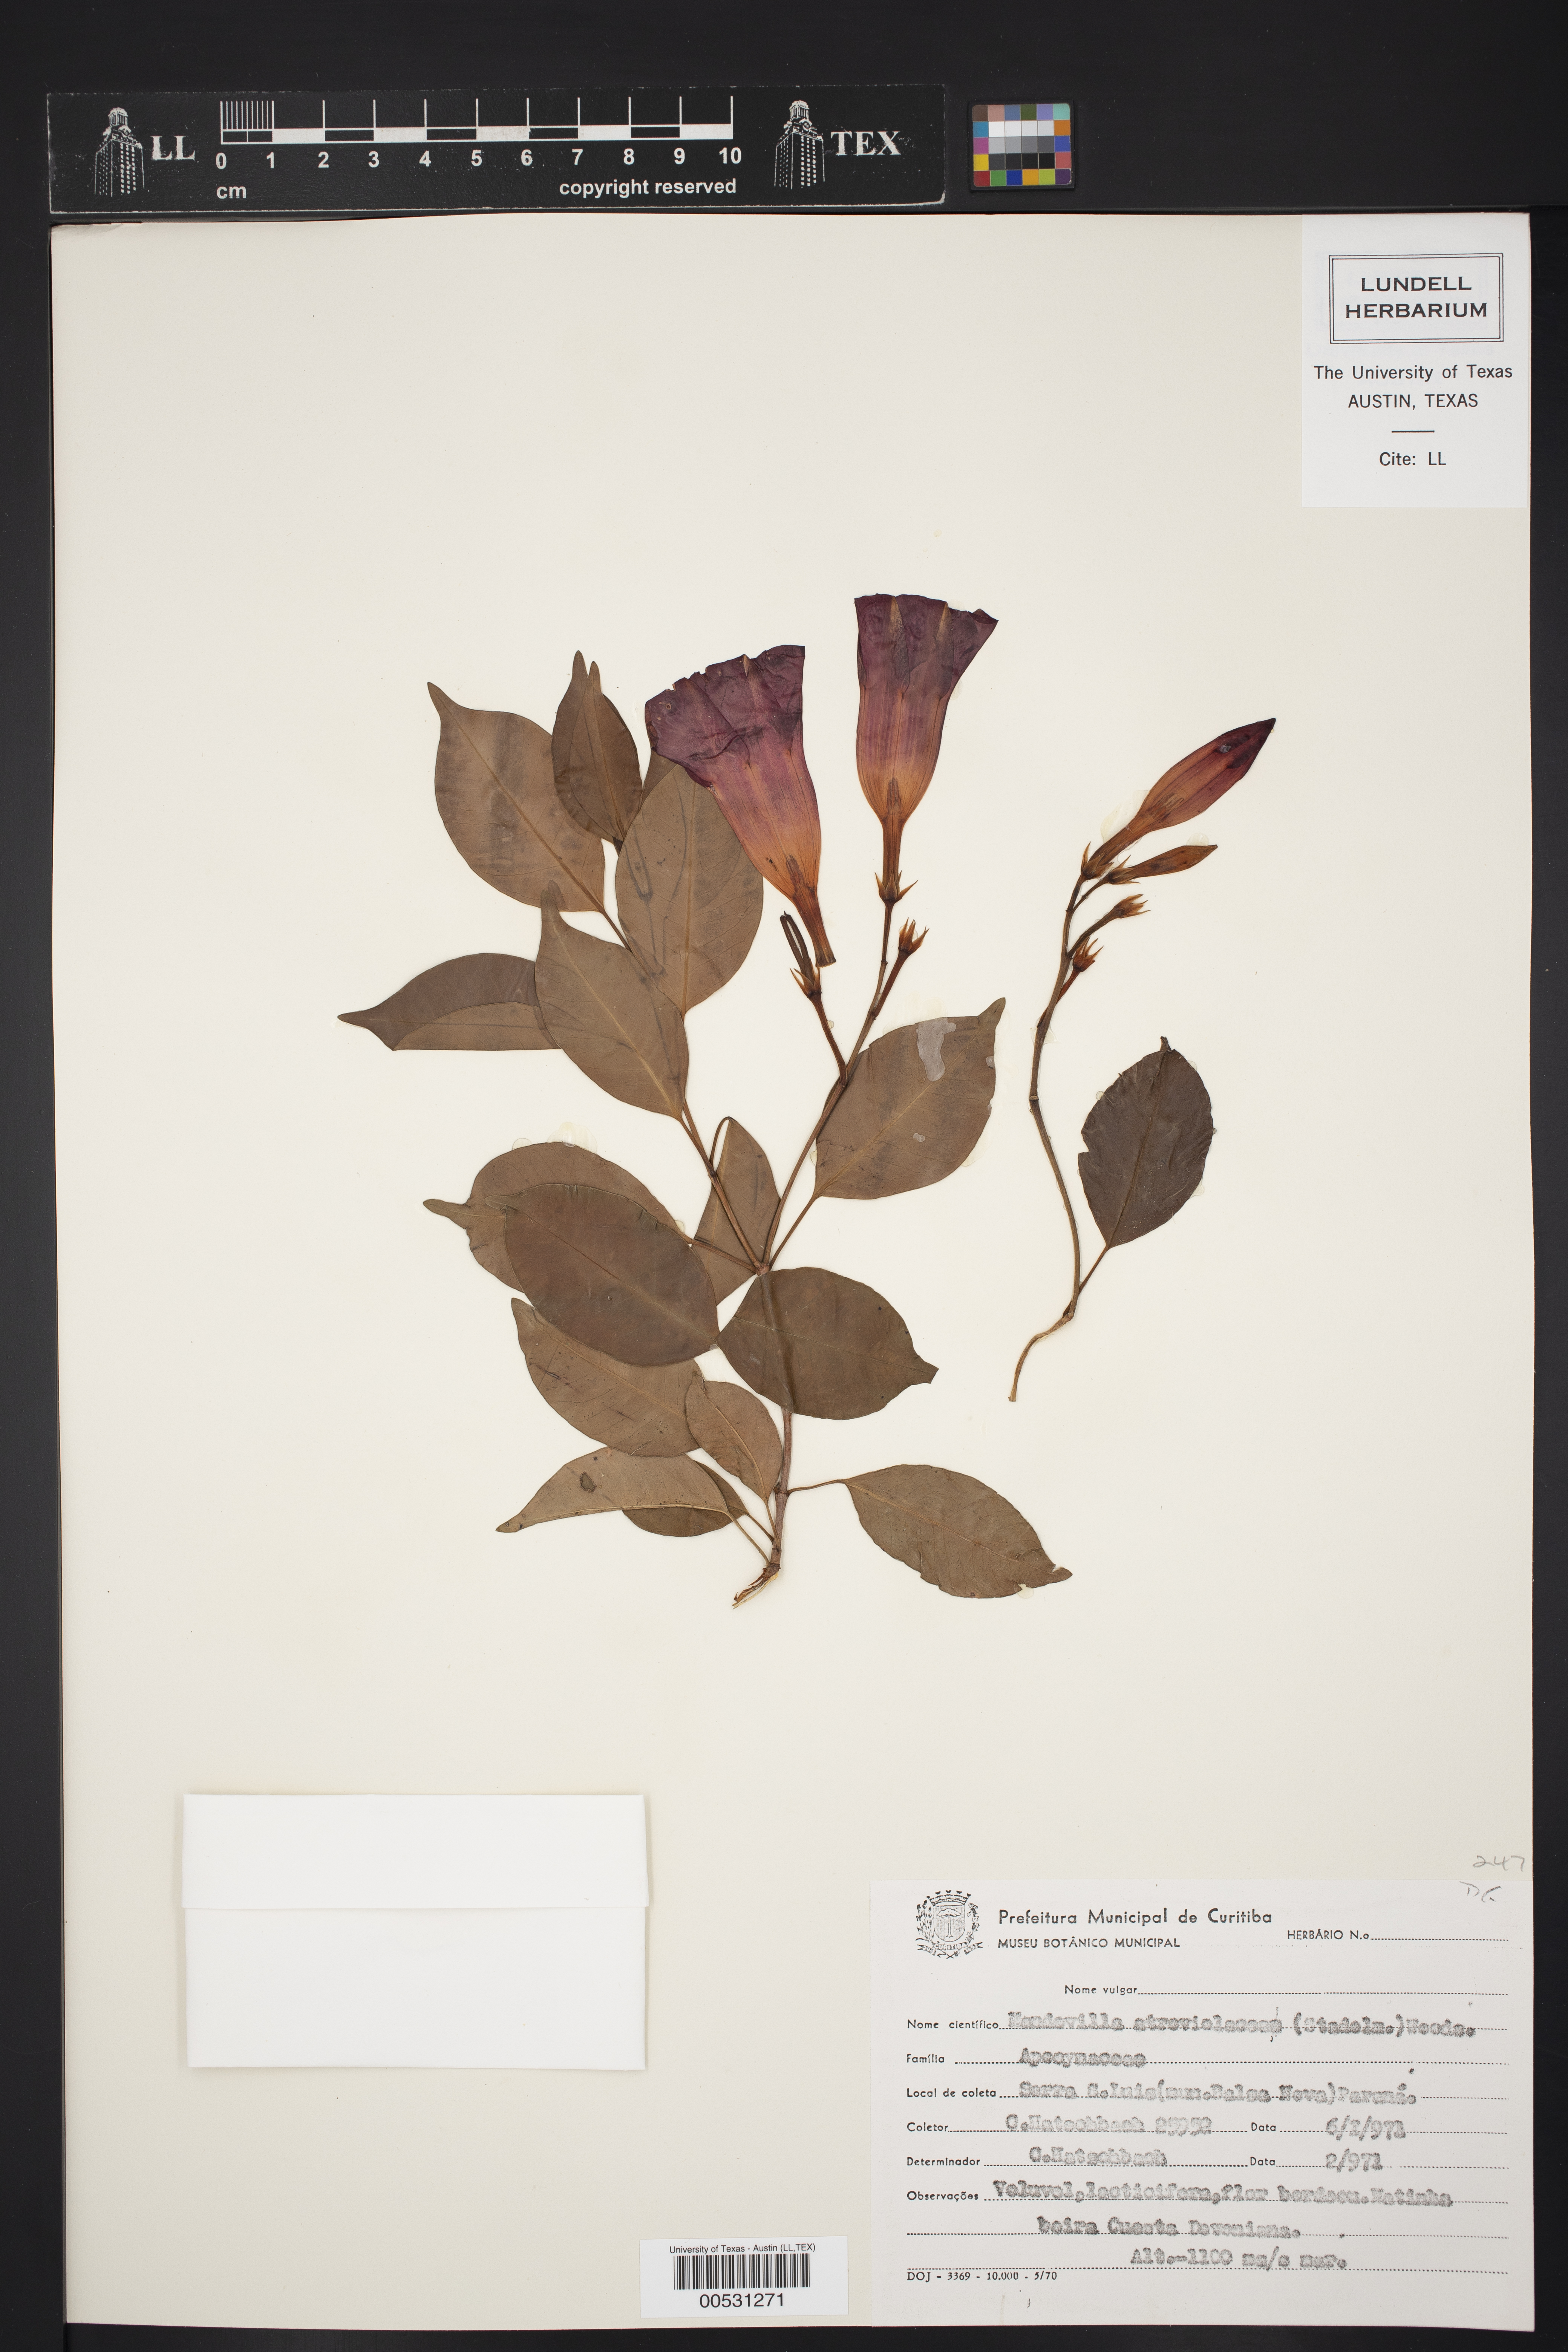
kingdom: Plantae
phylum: Tracheophyta
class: Magnoliopsida
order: Gentianales
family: Apocynaceae
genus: Mandevilla
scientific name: Mandevilla atroviolacea
